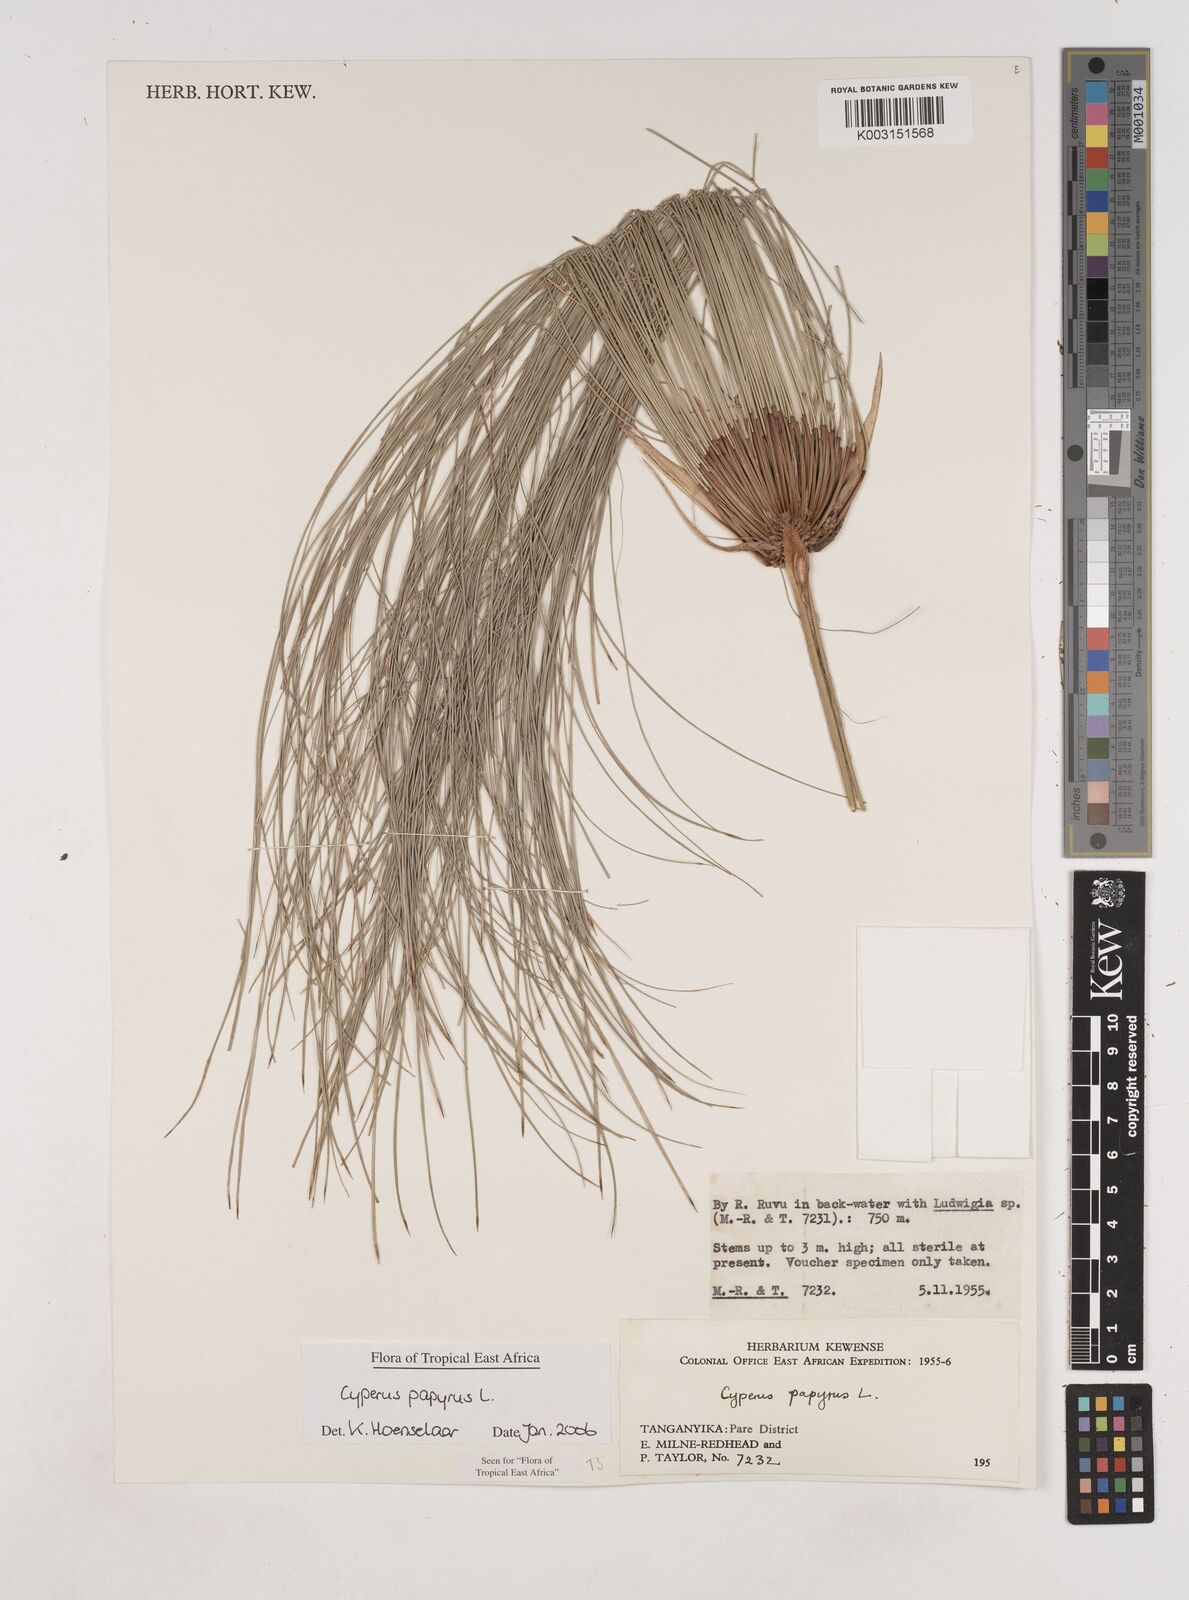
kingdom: Plantae
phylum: Tracheophyta
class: Liliopsida
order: Poales
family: Cyperaceae
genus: Cyperus
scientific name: Cyperus papyrus
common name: Papyrus
